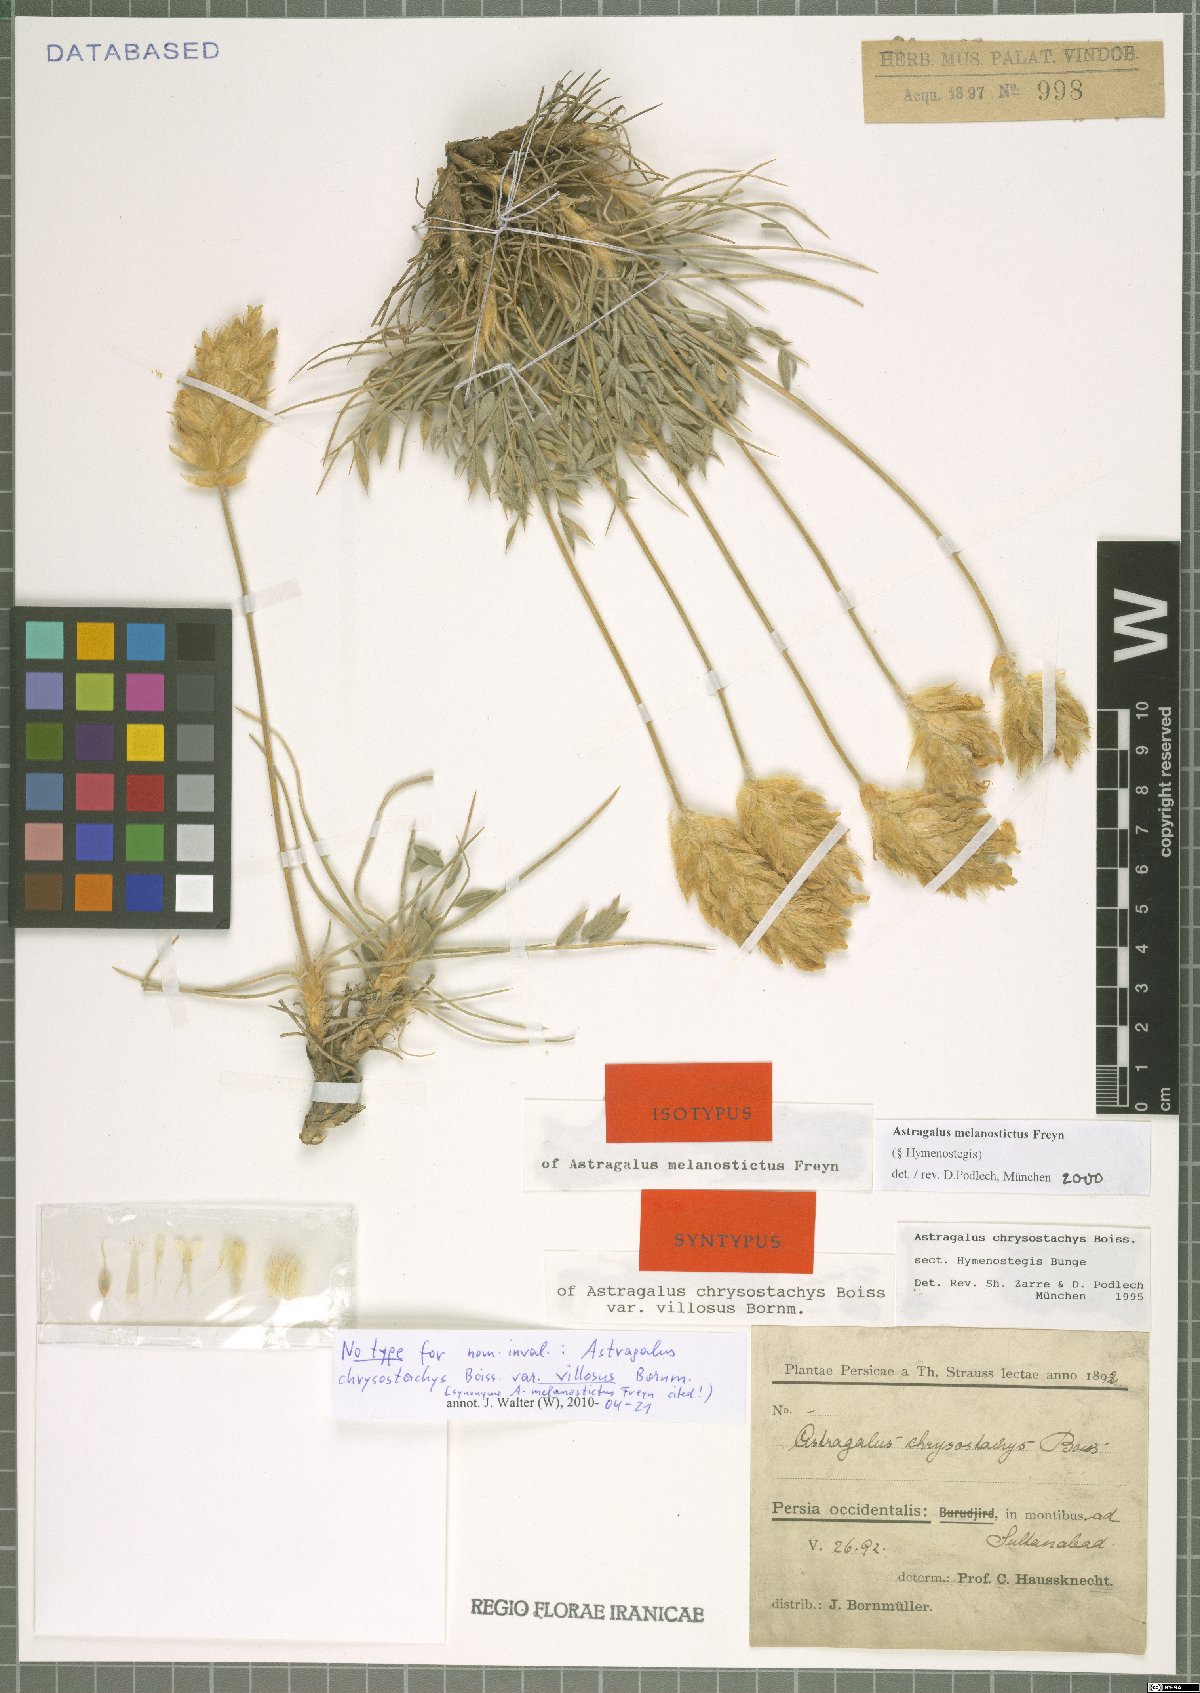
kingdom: Plantae
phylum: Tracheophyta
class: Magnoliopsida
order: Fabales
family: Fabaceae
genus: Astragalus
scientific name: Astragalus melanostictus
